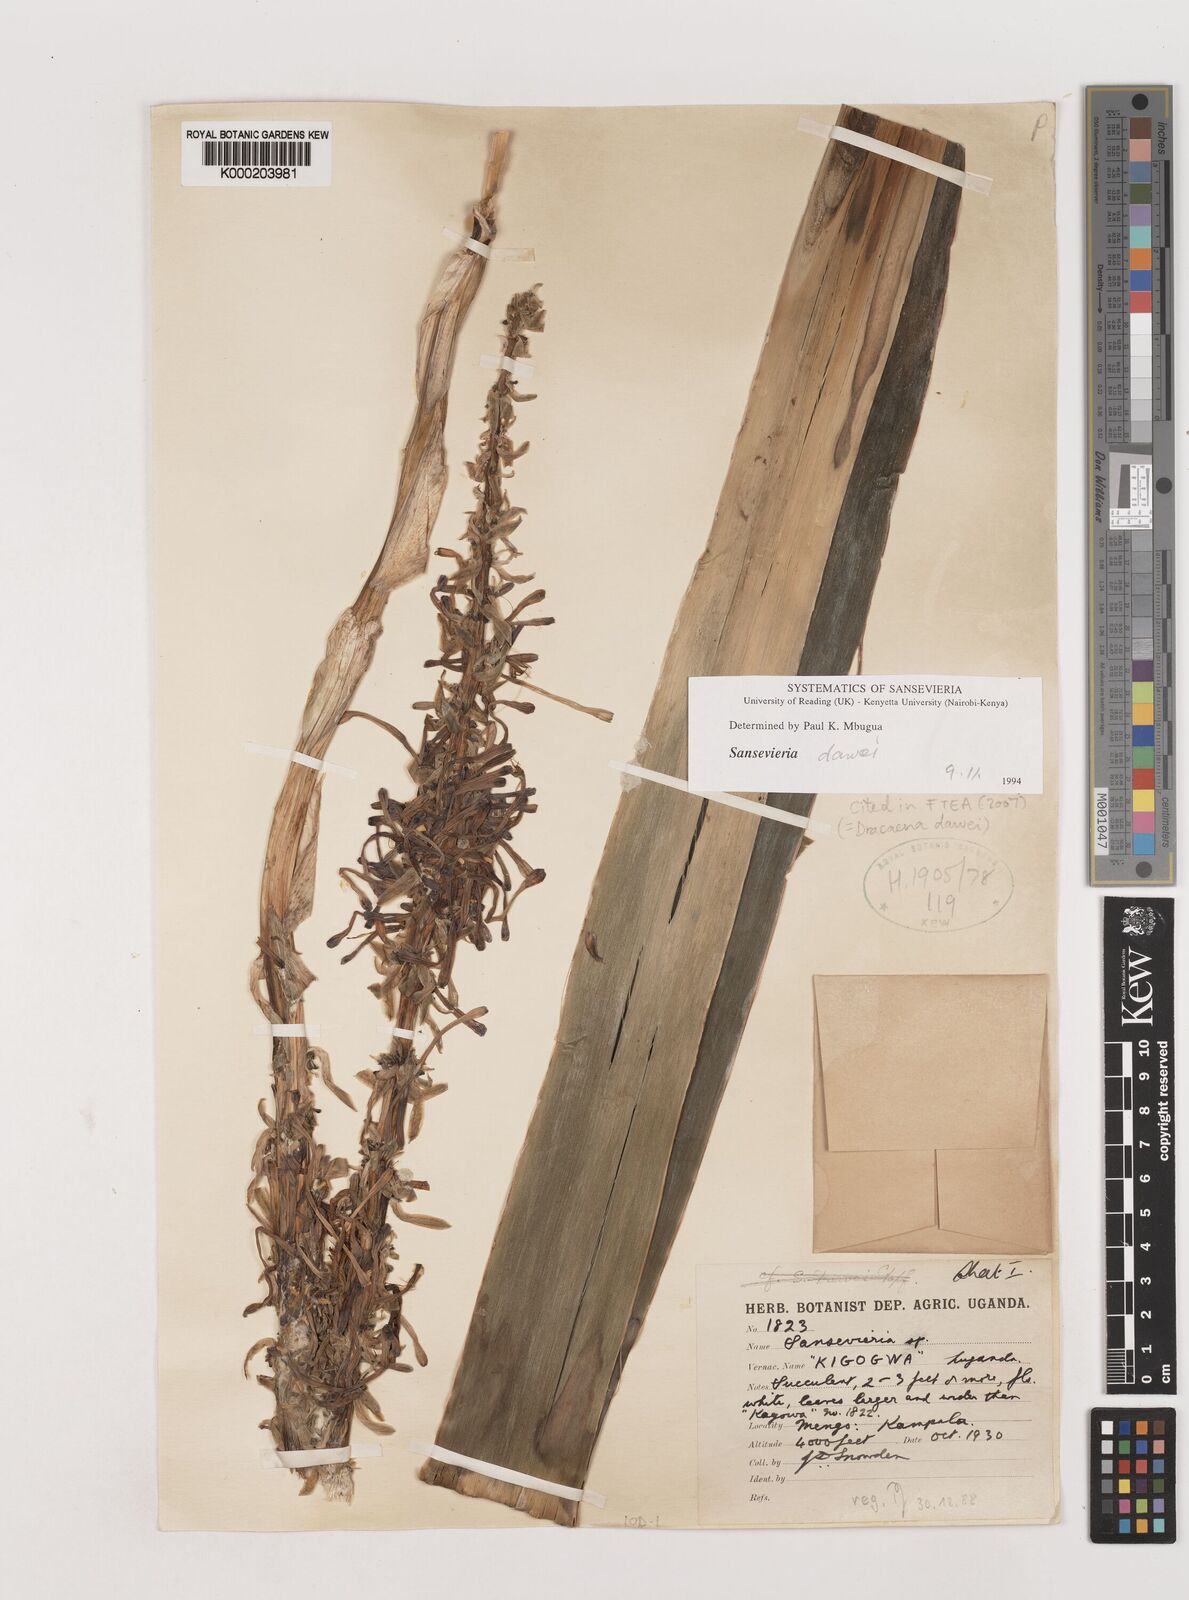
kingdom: Plantae
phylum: Tracheophyta
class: Liliopsida
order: Asparagales
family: Asparagaceae
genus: Dracaena
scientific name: Dracaena dawei
